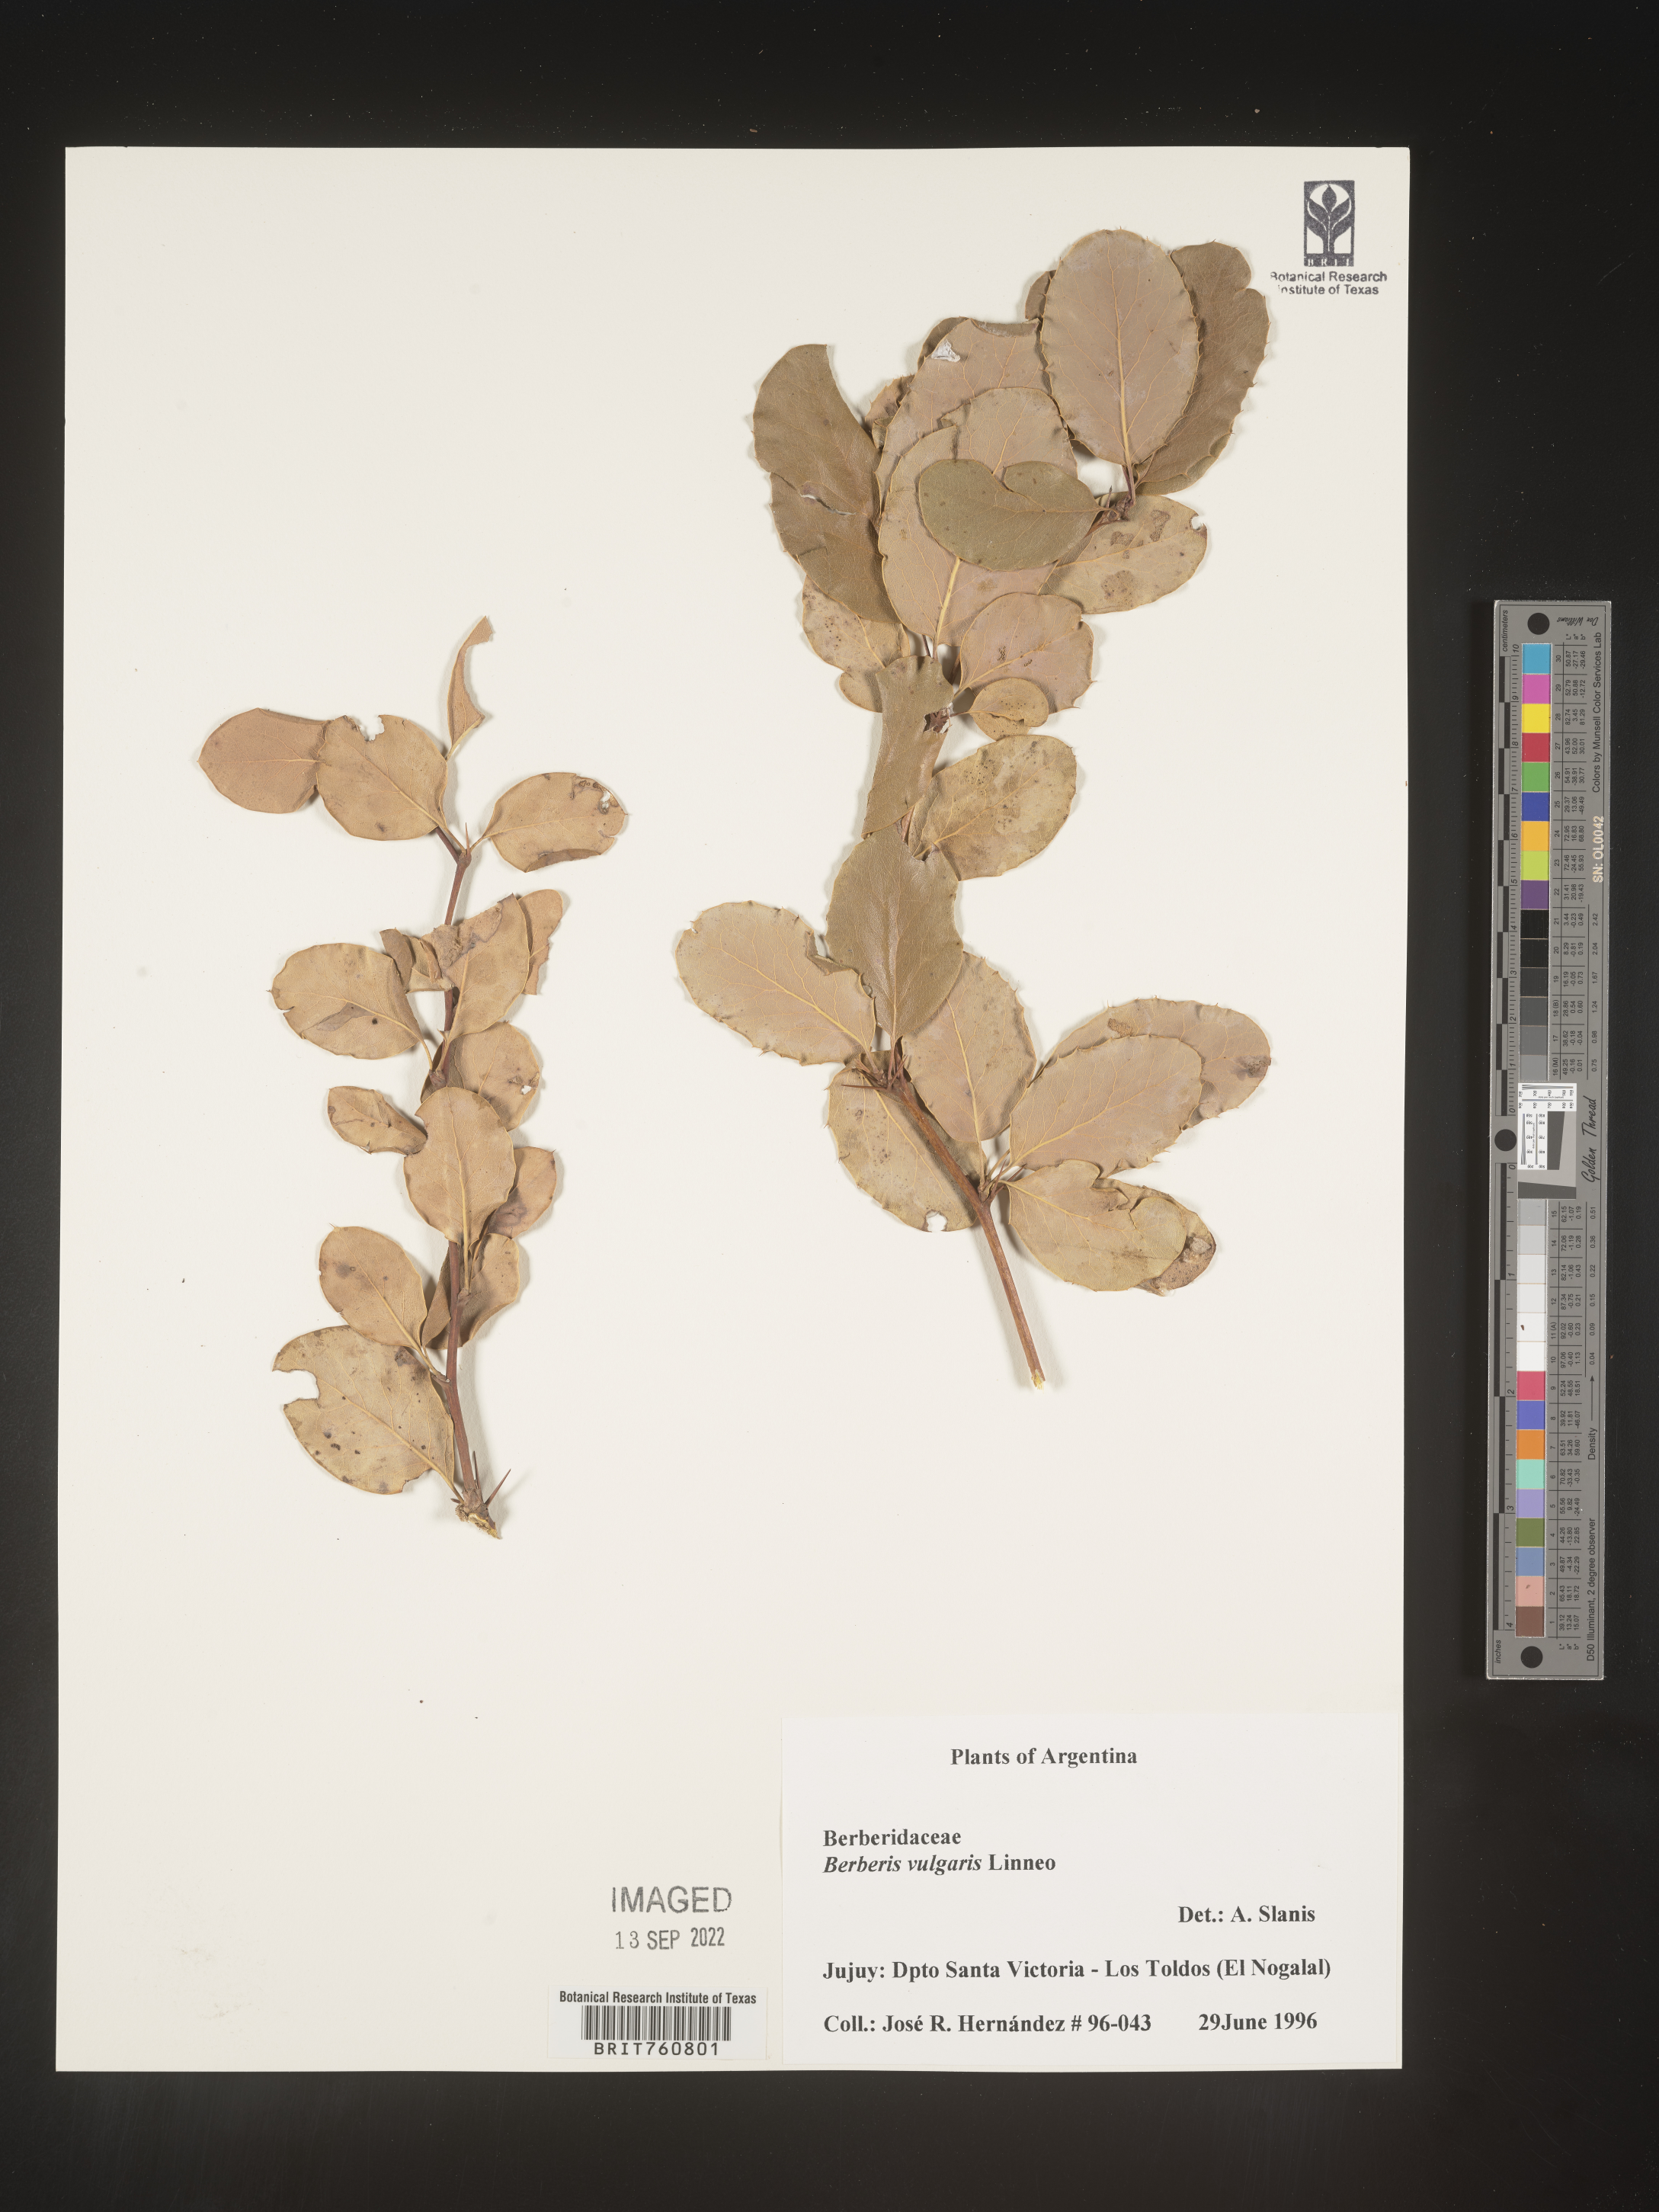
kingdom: Plantae
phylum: Tracheophyta
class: Magnoliopsida
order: Ranunculales
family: Berberidaceae
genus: Berberis
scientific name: Berberis
